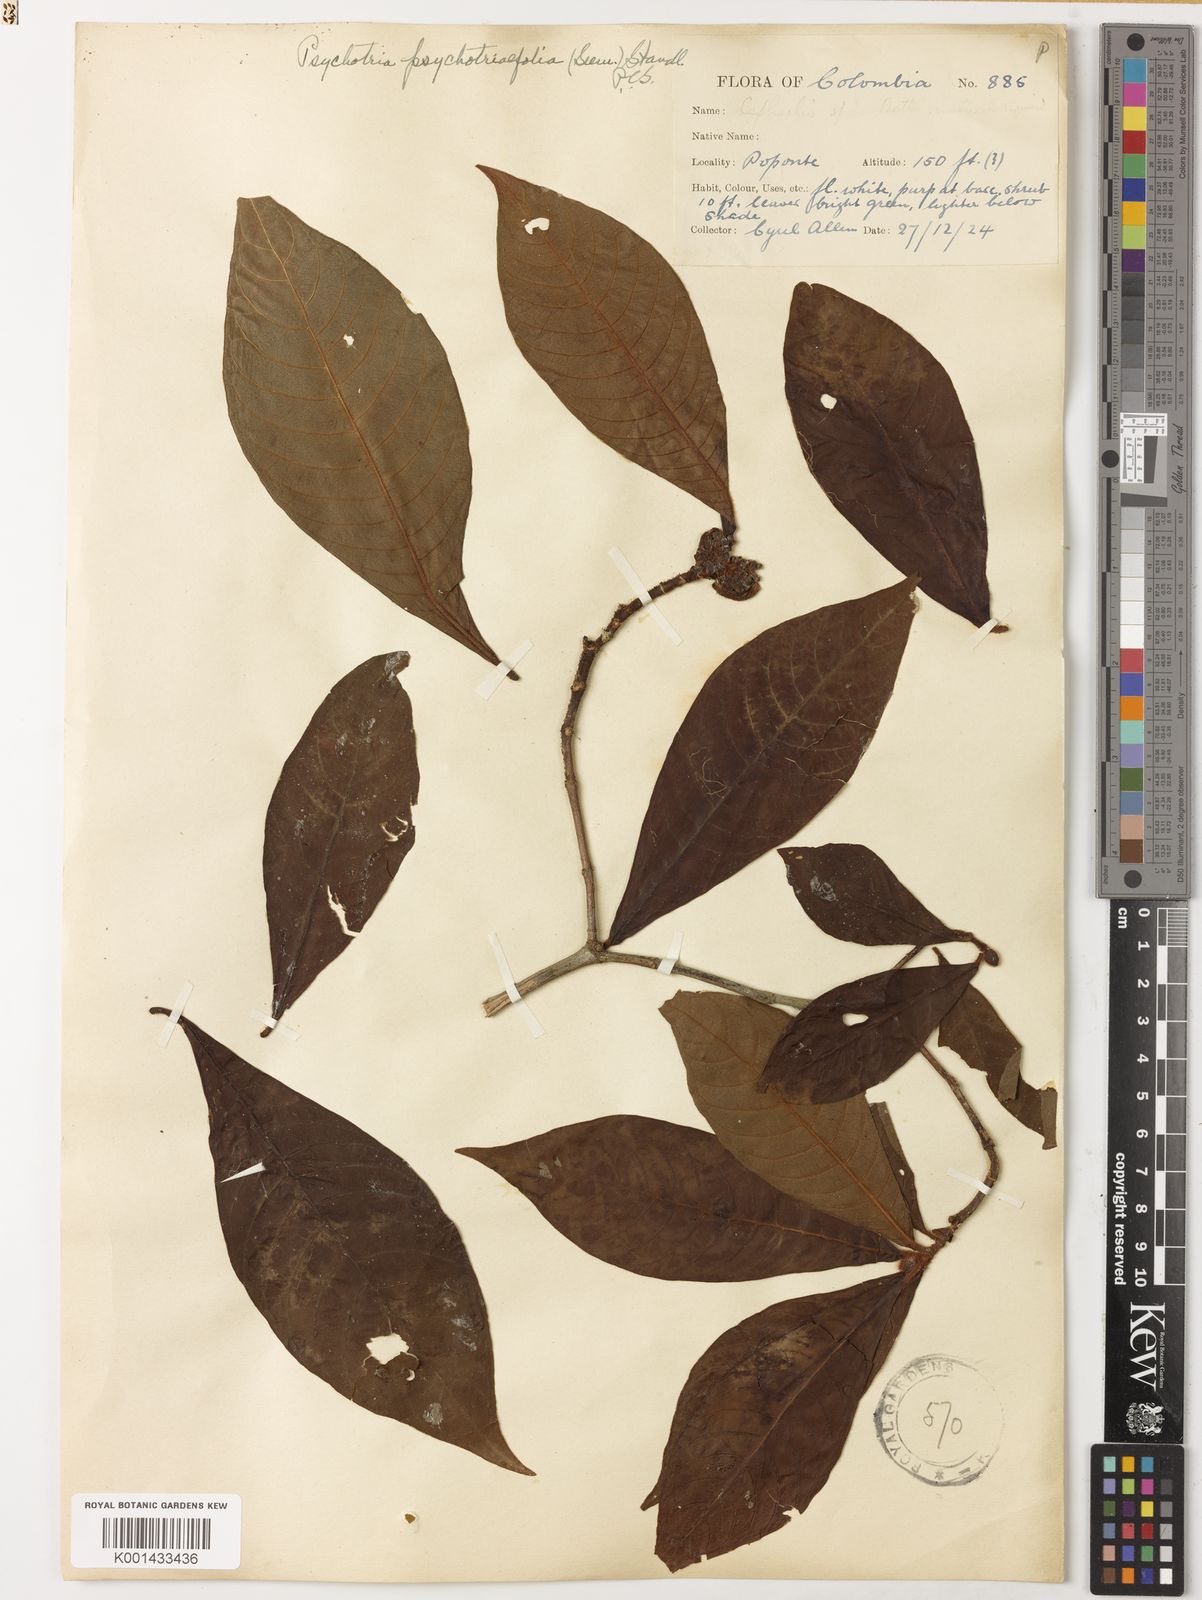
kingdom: Plantae
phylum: Tracheophyta
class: Magnoliopsida
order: Gentianales
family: Rubiaceae
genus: Psychotria
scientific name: Psychotria psychotriifolia
